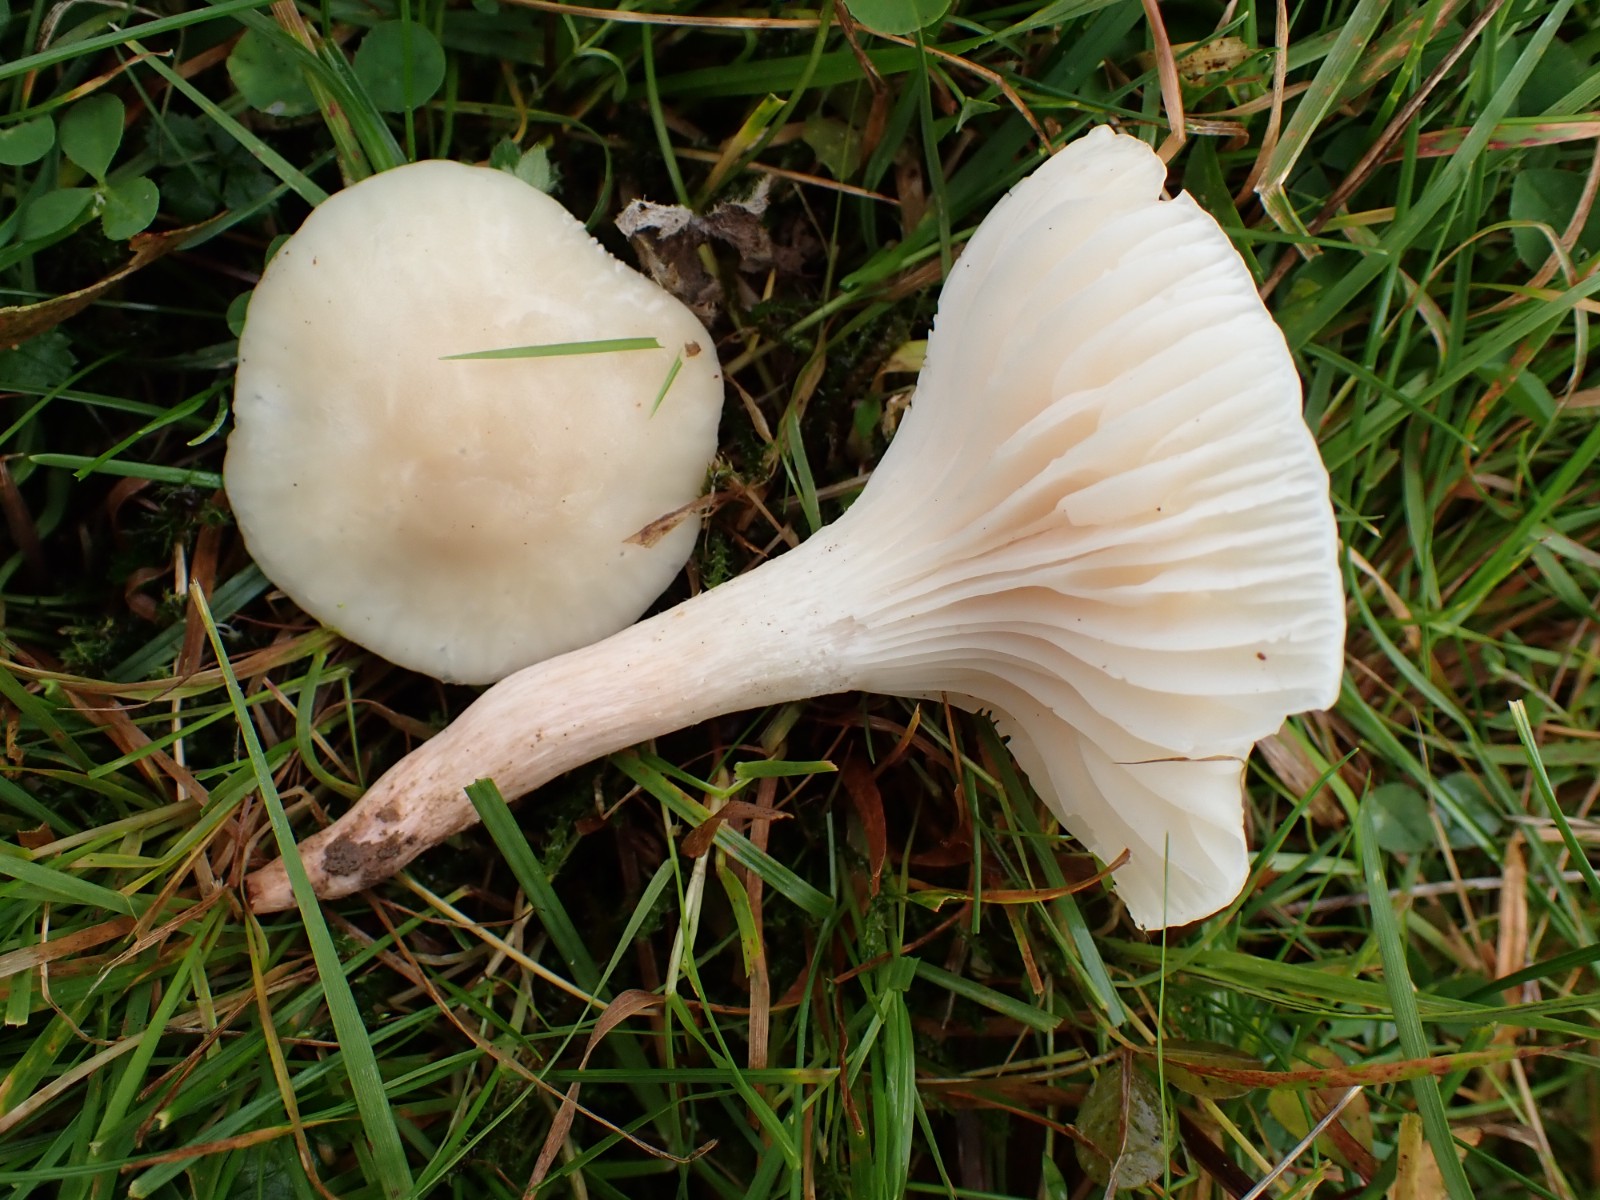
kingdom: Fungi
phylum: Basidiomycota
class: Agaricomycetes
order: Agaricales
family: Hygrophoraceae
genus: Cuphophyllus
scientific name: Cuphophyllus
